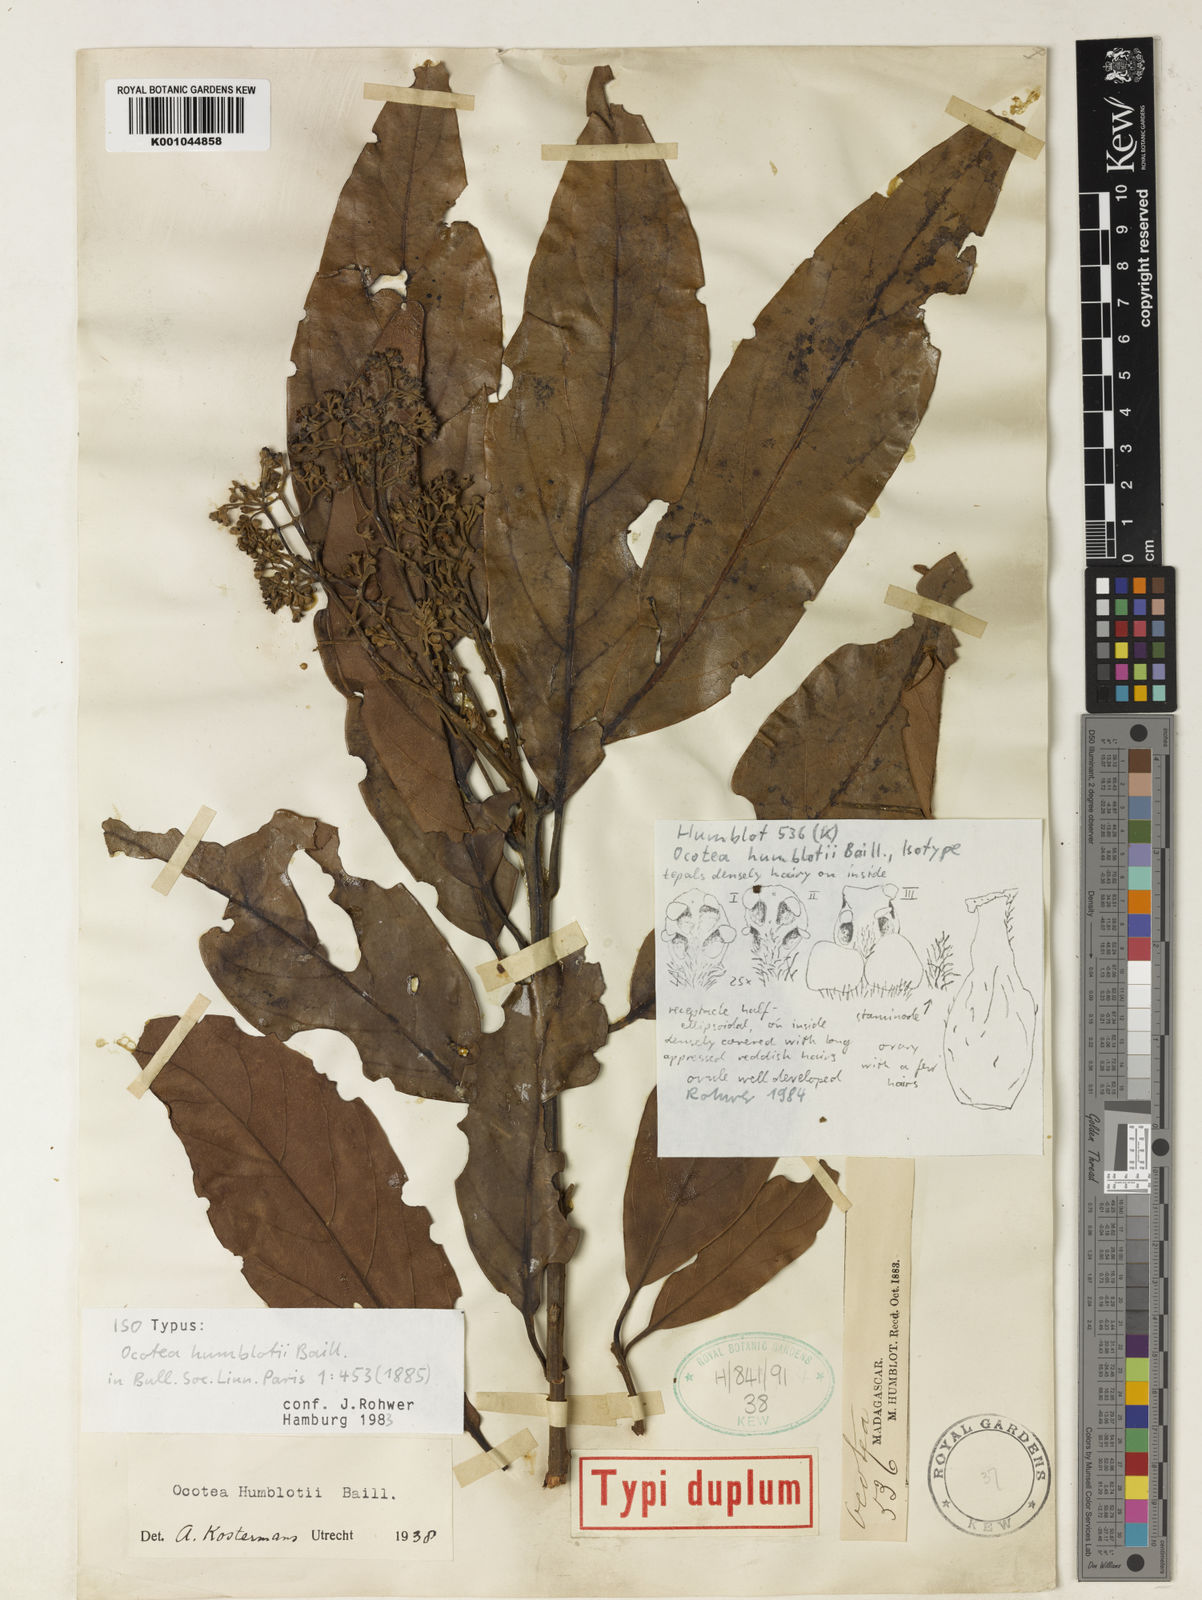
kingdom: Plantae
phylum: Tracheophyta
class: Magnoliopsida
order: Laurales
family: Lauraceae
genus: Ocotea
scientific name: Ocotea humblotii
